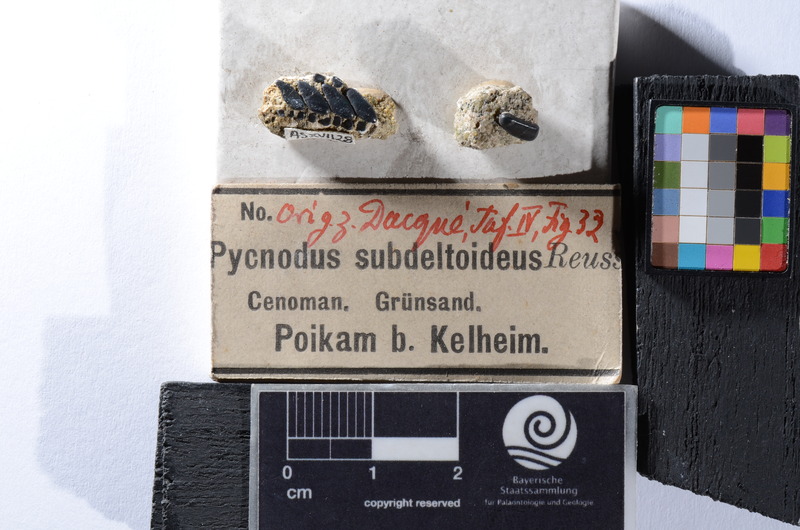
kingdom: Animalia
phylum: Chordata
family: Pycnodontidae
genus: Anomoeodus
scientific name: Anomoeodus
